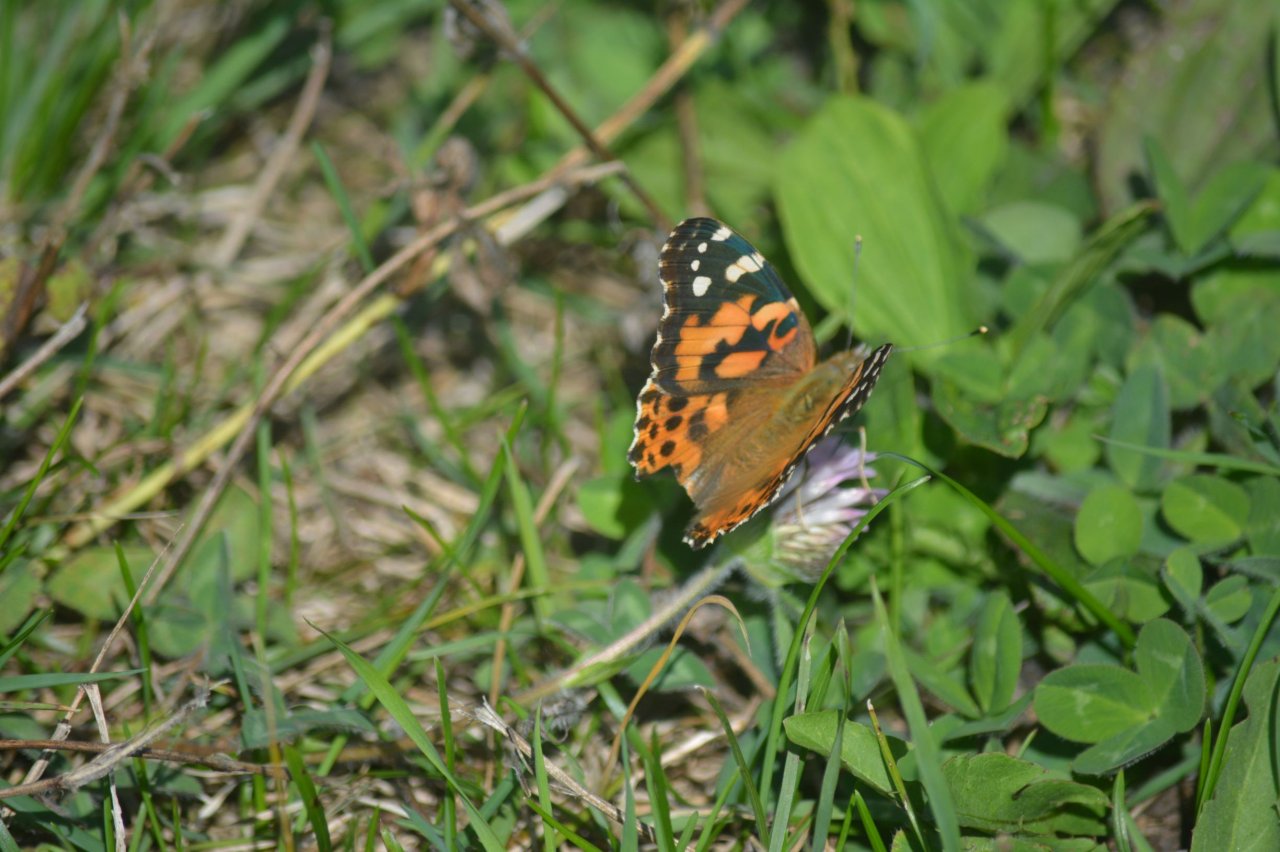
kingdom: Animalia
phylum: Arthropoda
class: Insecta
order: Lepidoptera
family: Nymphalidae
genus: Vanessa
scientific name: Vanessa cardui
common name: Painted Lady
